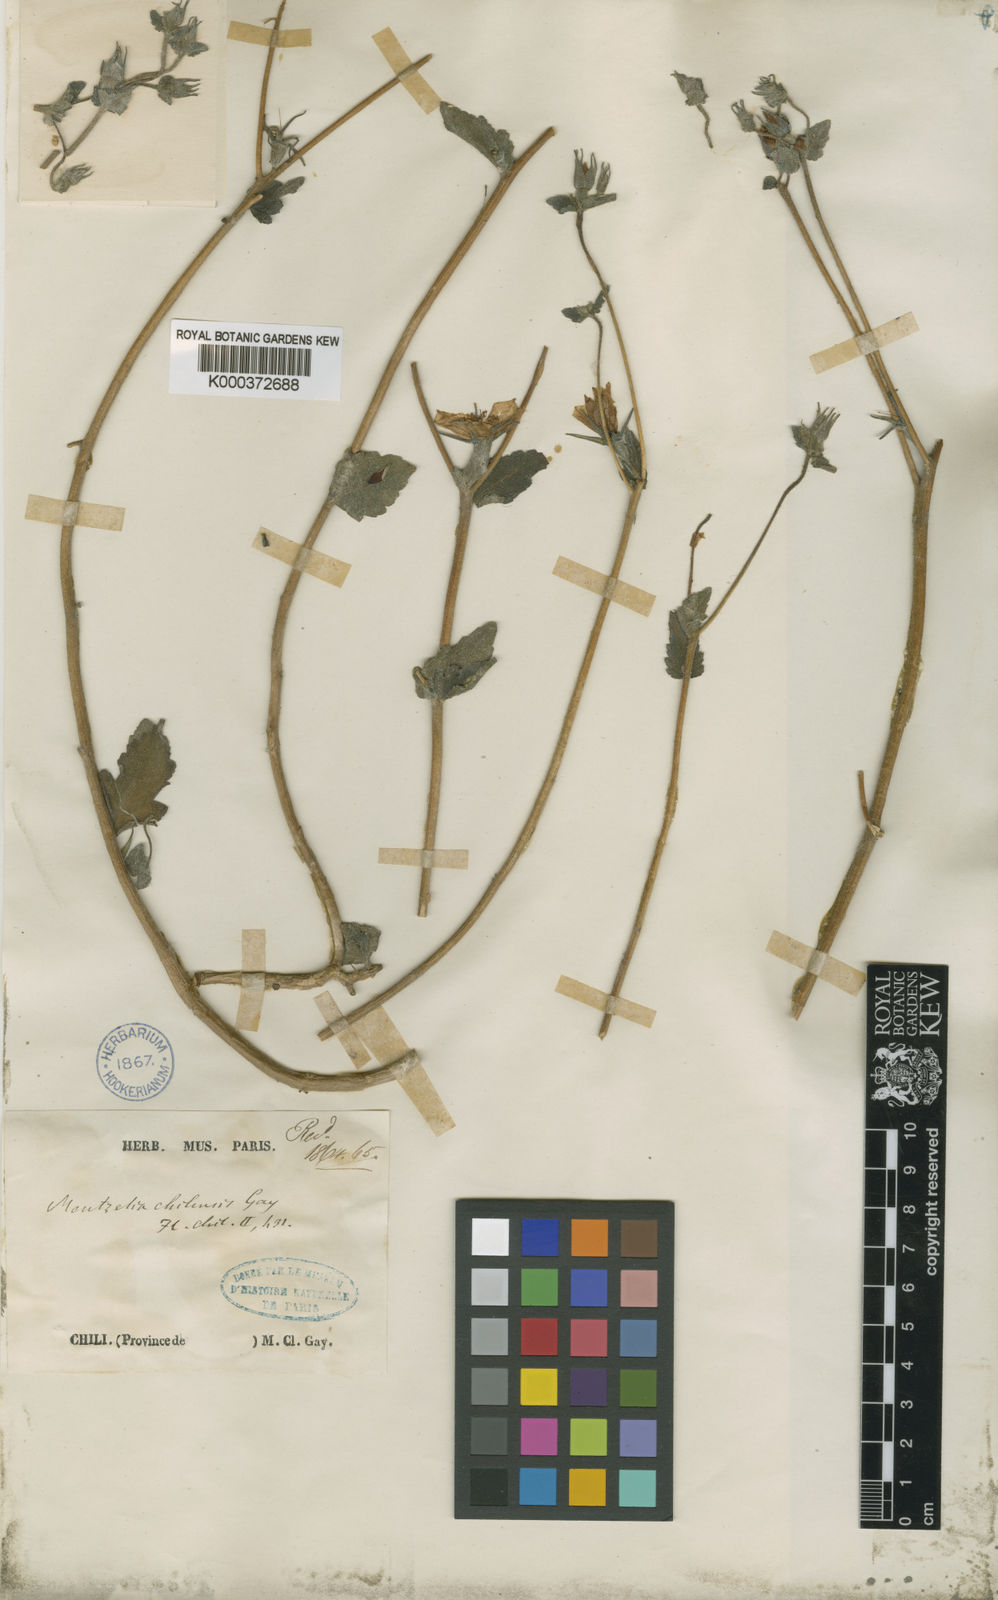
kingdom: Plantae
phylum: Tracheophyta
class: Magnoliopsida
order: Cornales
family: Loasaceae
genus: Mentzelia
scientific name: Mentzelia scabra
